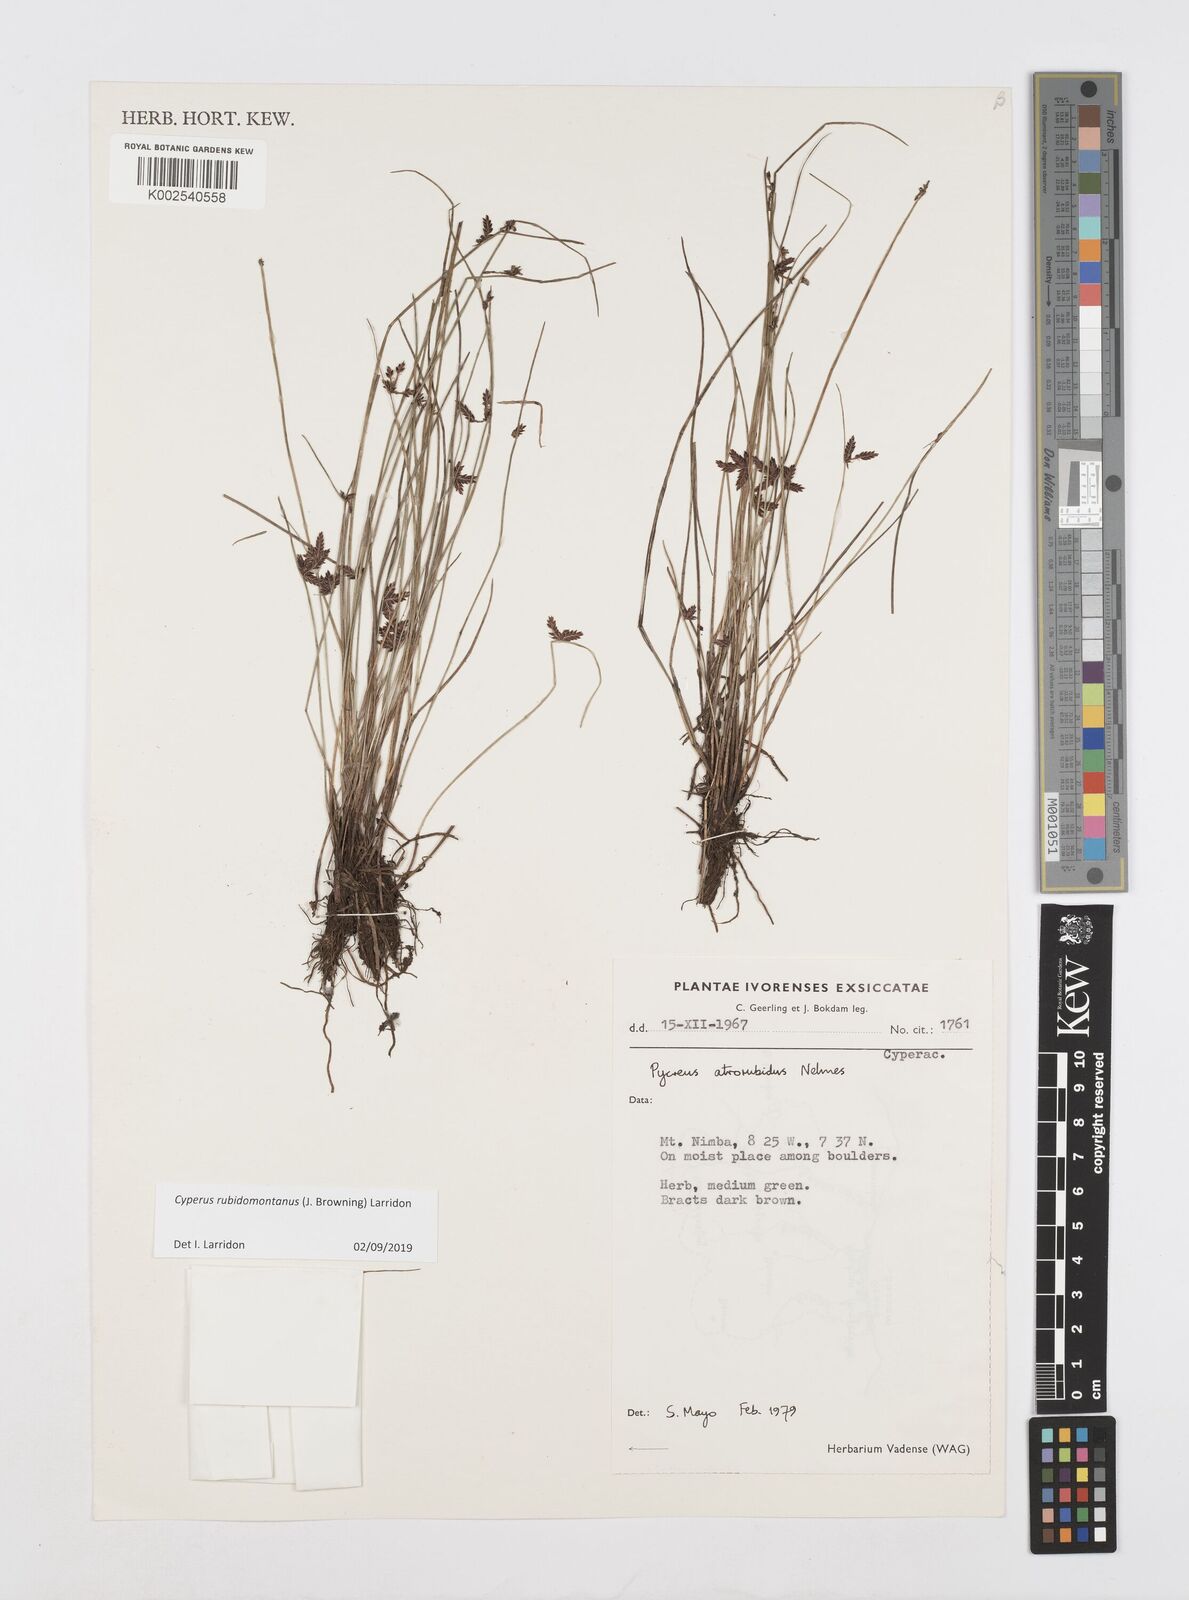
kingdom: Plantae
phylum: Tracheophyta
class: Liliopsida
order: Poales
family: Cyperaceae
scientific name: Cyperaceae
